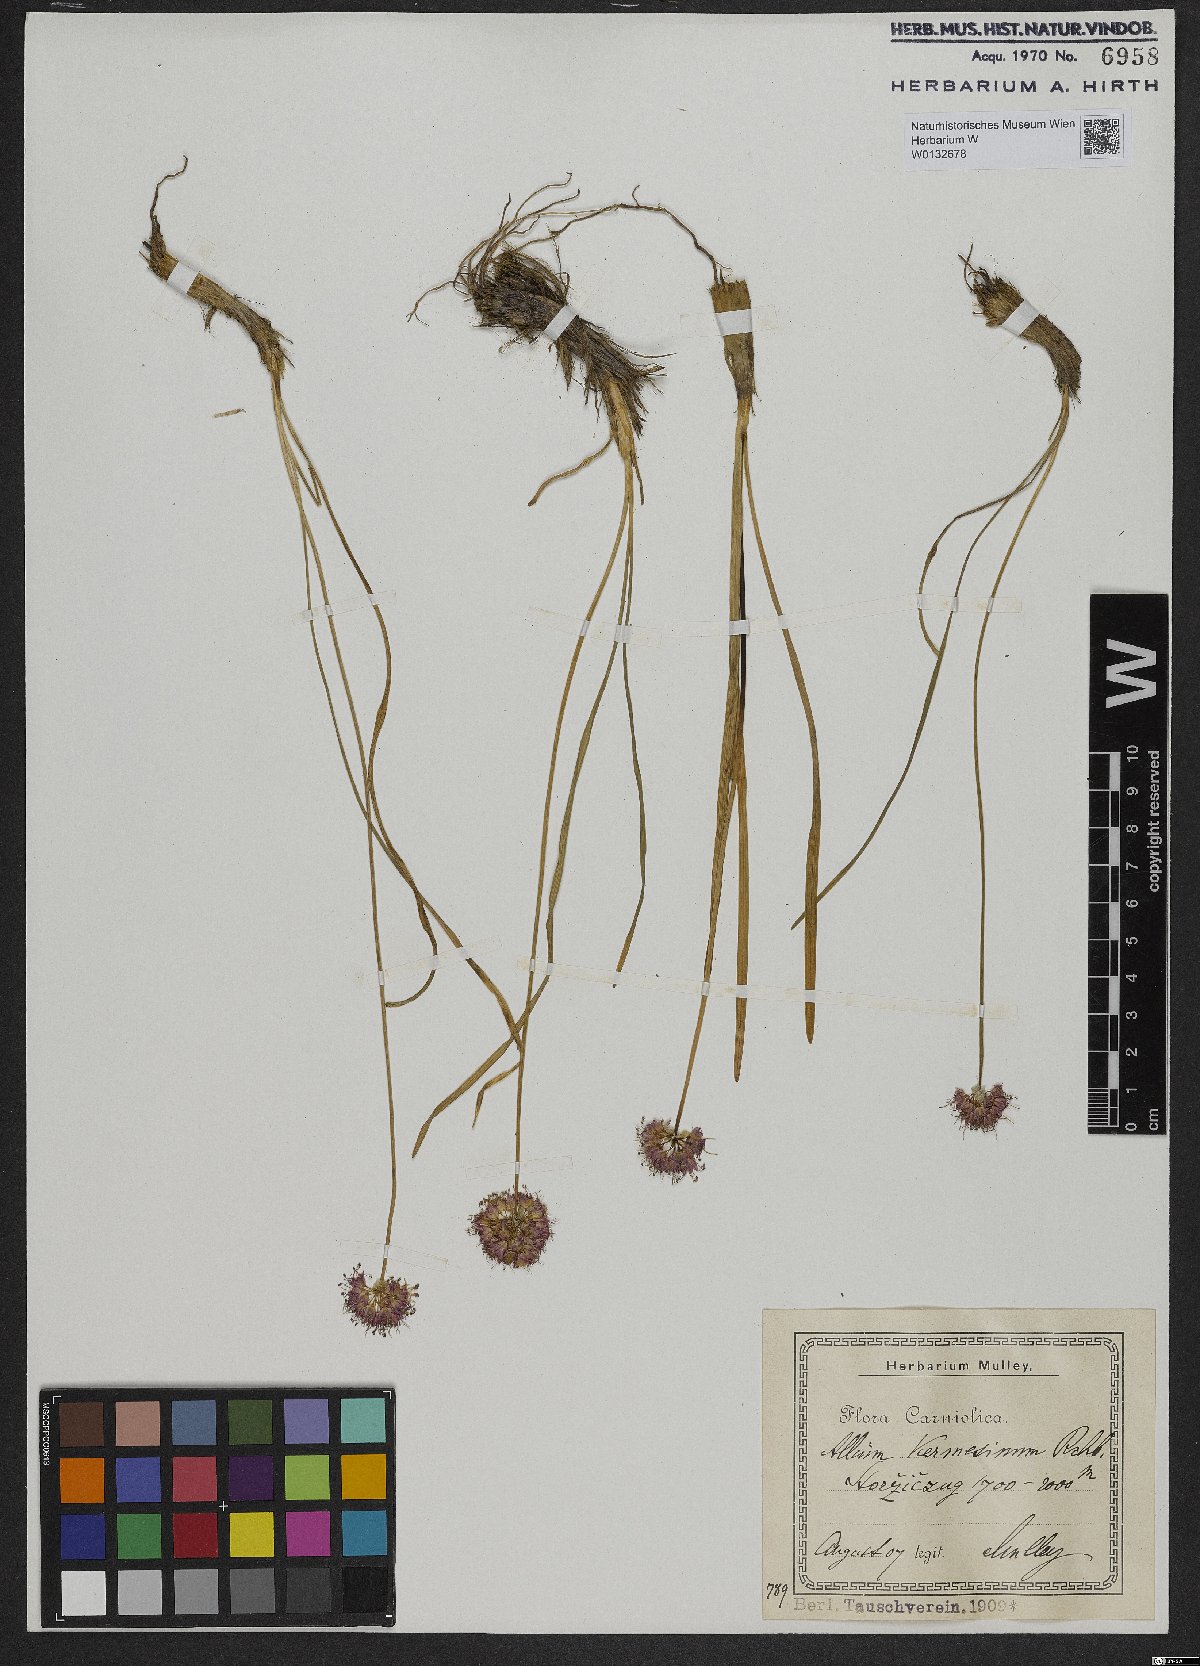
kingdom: Plantae
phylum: Tracheophyta
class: Liliopsida
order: Asparagales
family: Amaryllidaceae
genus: Allium
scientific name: Allium kermesinum
